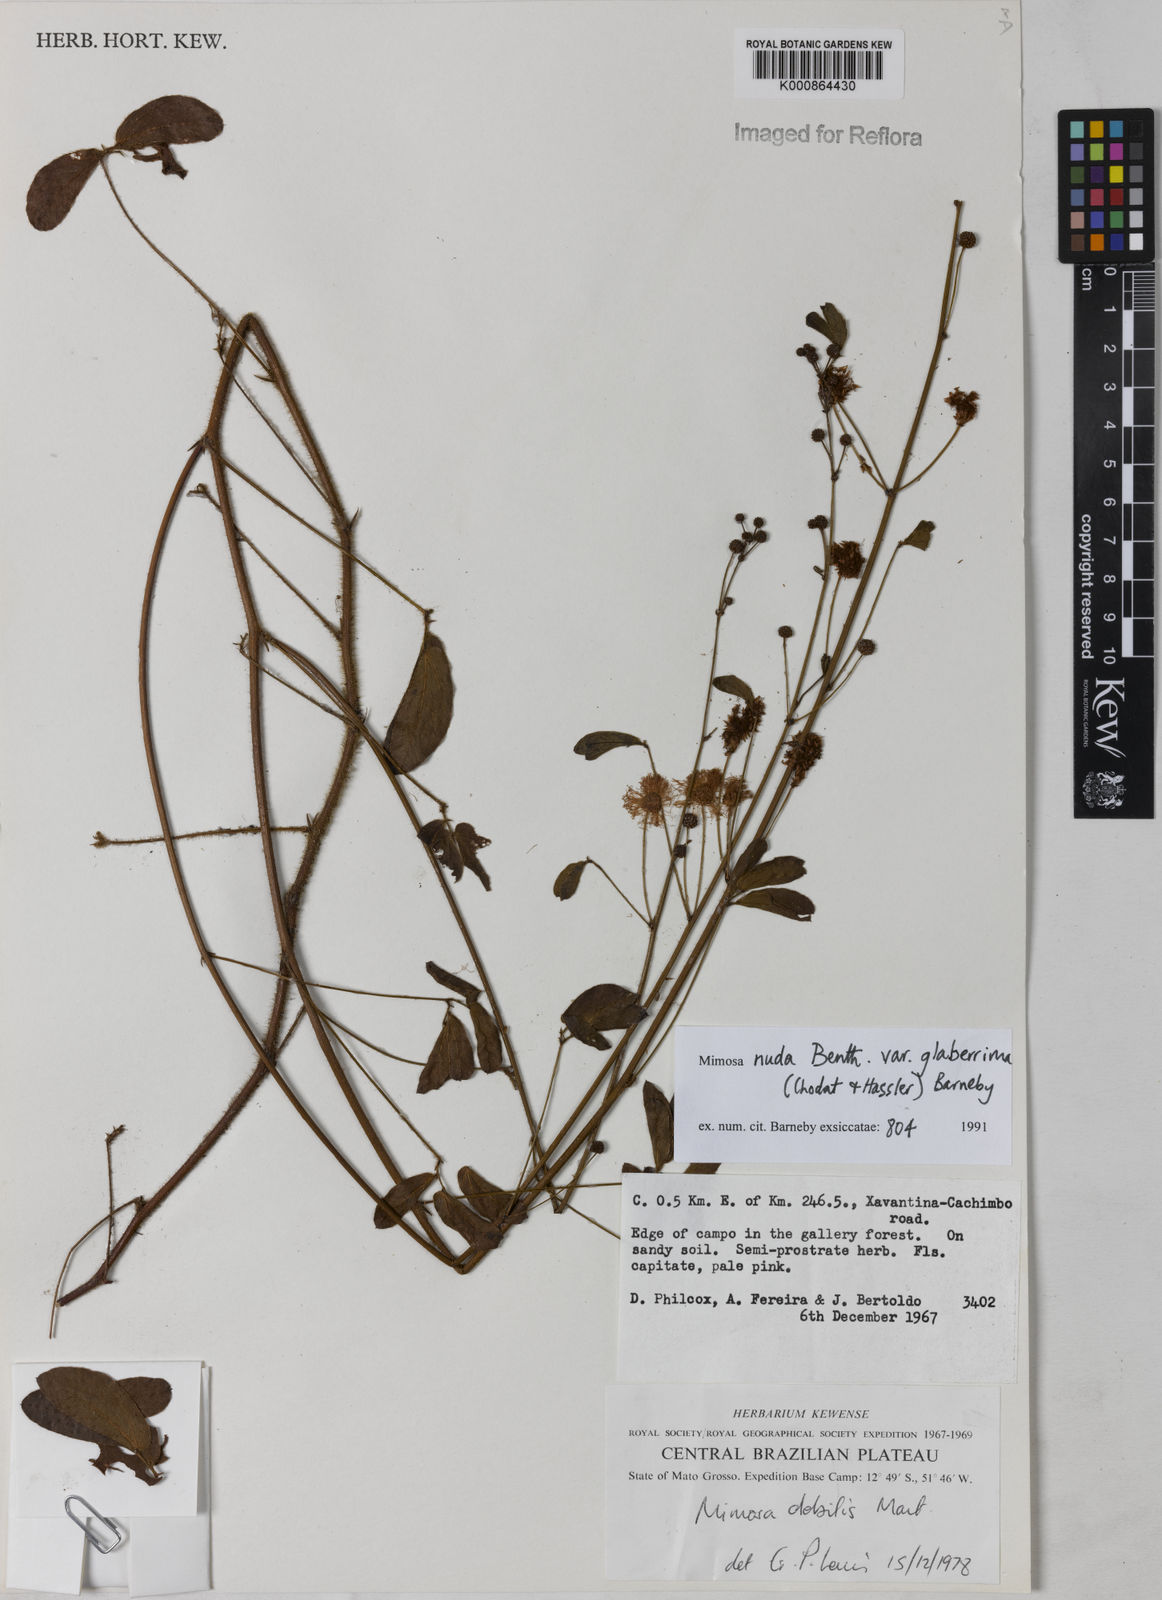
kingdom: Plantae
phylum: Tracheophyta
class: Magnoliopsida
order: Fabales
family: Fabaceae
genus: Mimosa
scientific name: Mimosa debilis
